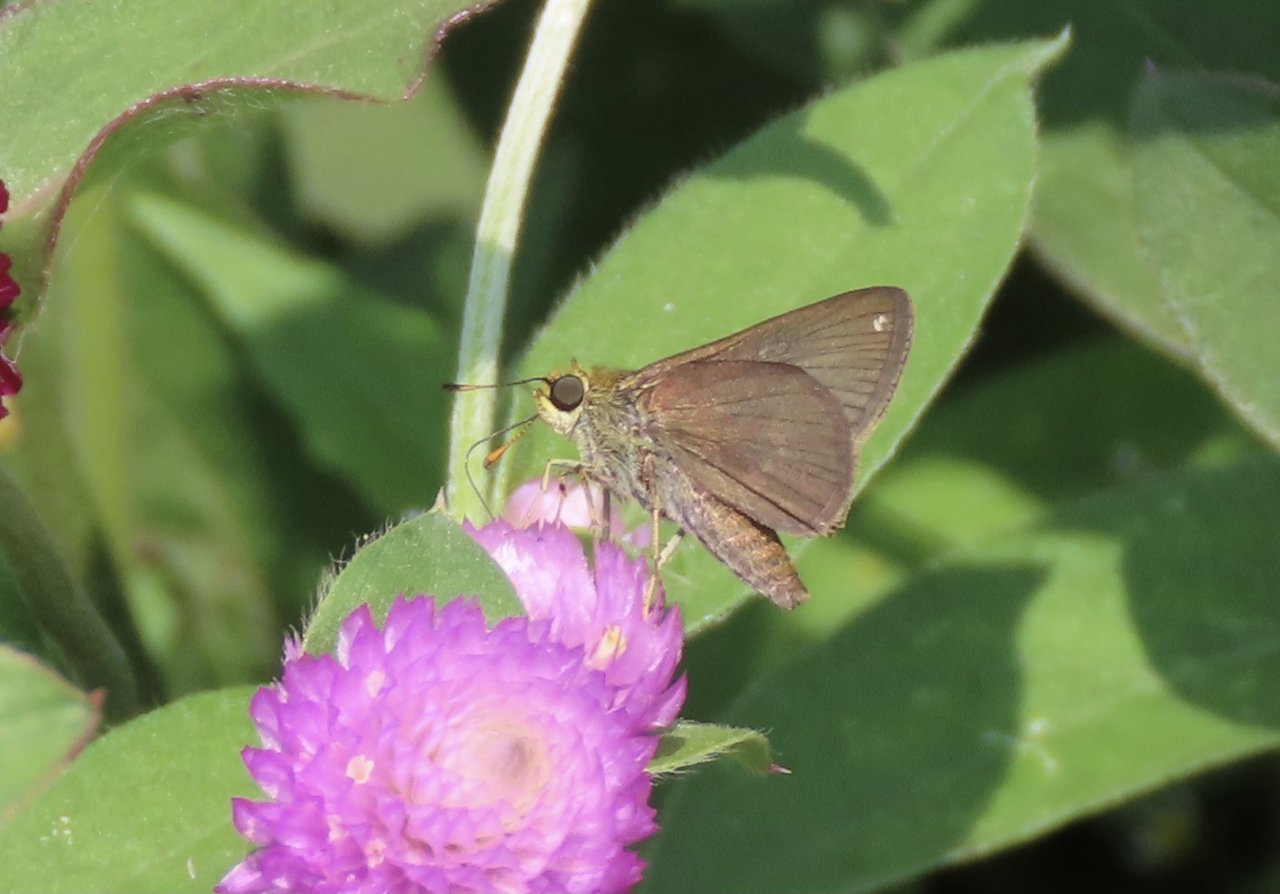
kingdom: Animalia
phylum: Arthropoda
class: Insecta
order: Lepidoptera
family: Hesperiidae
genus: Euphyes
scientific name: Euphyes vestris
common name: Dun Skipper
